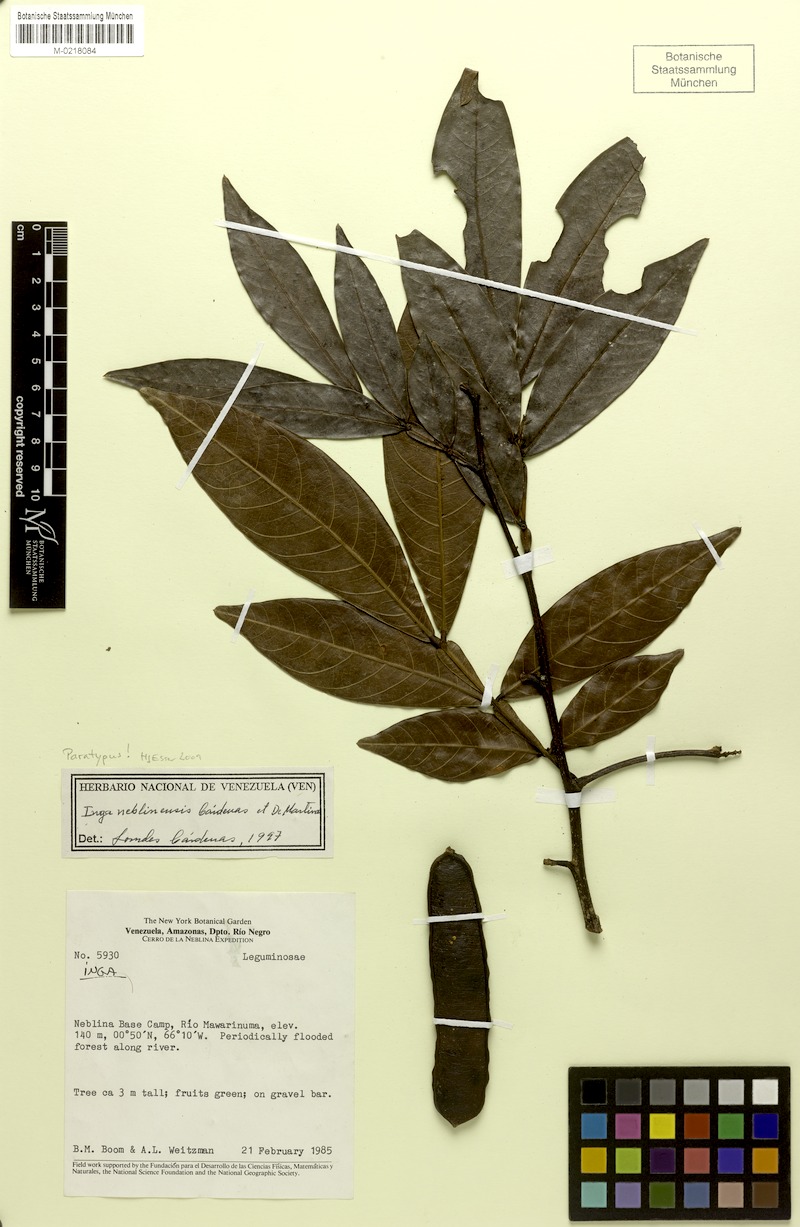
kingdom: Plantae
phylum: Tracheophyta
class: Magnoliopsida
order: Fabales
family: Fabaceae
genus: Inga
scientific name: Inga neblinensis
